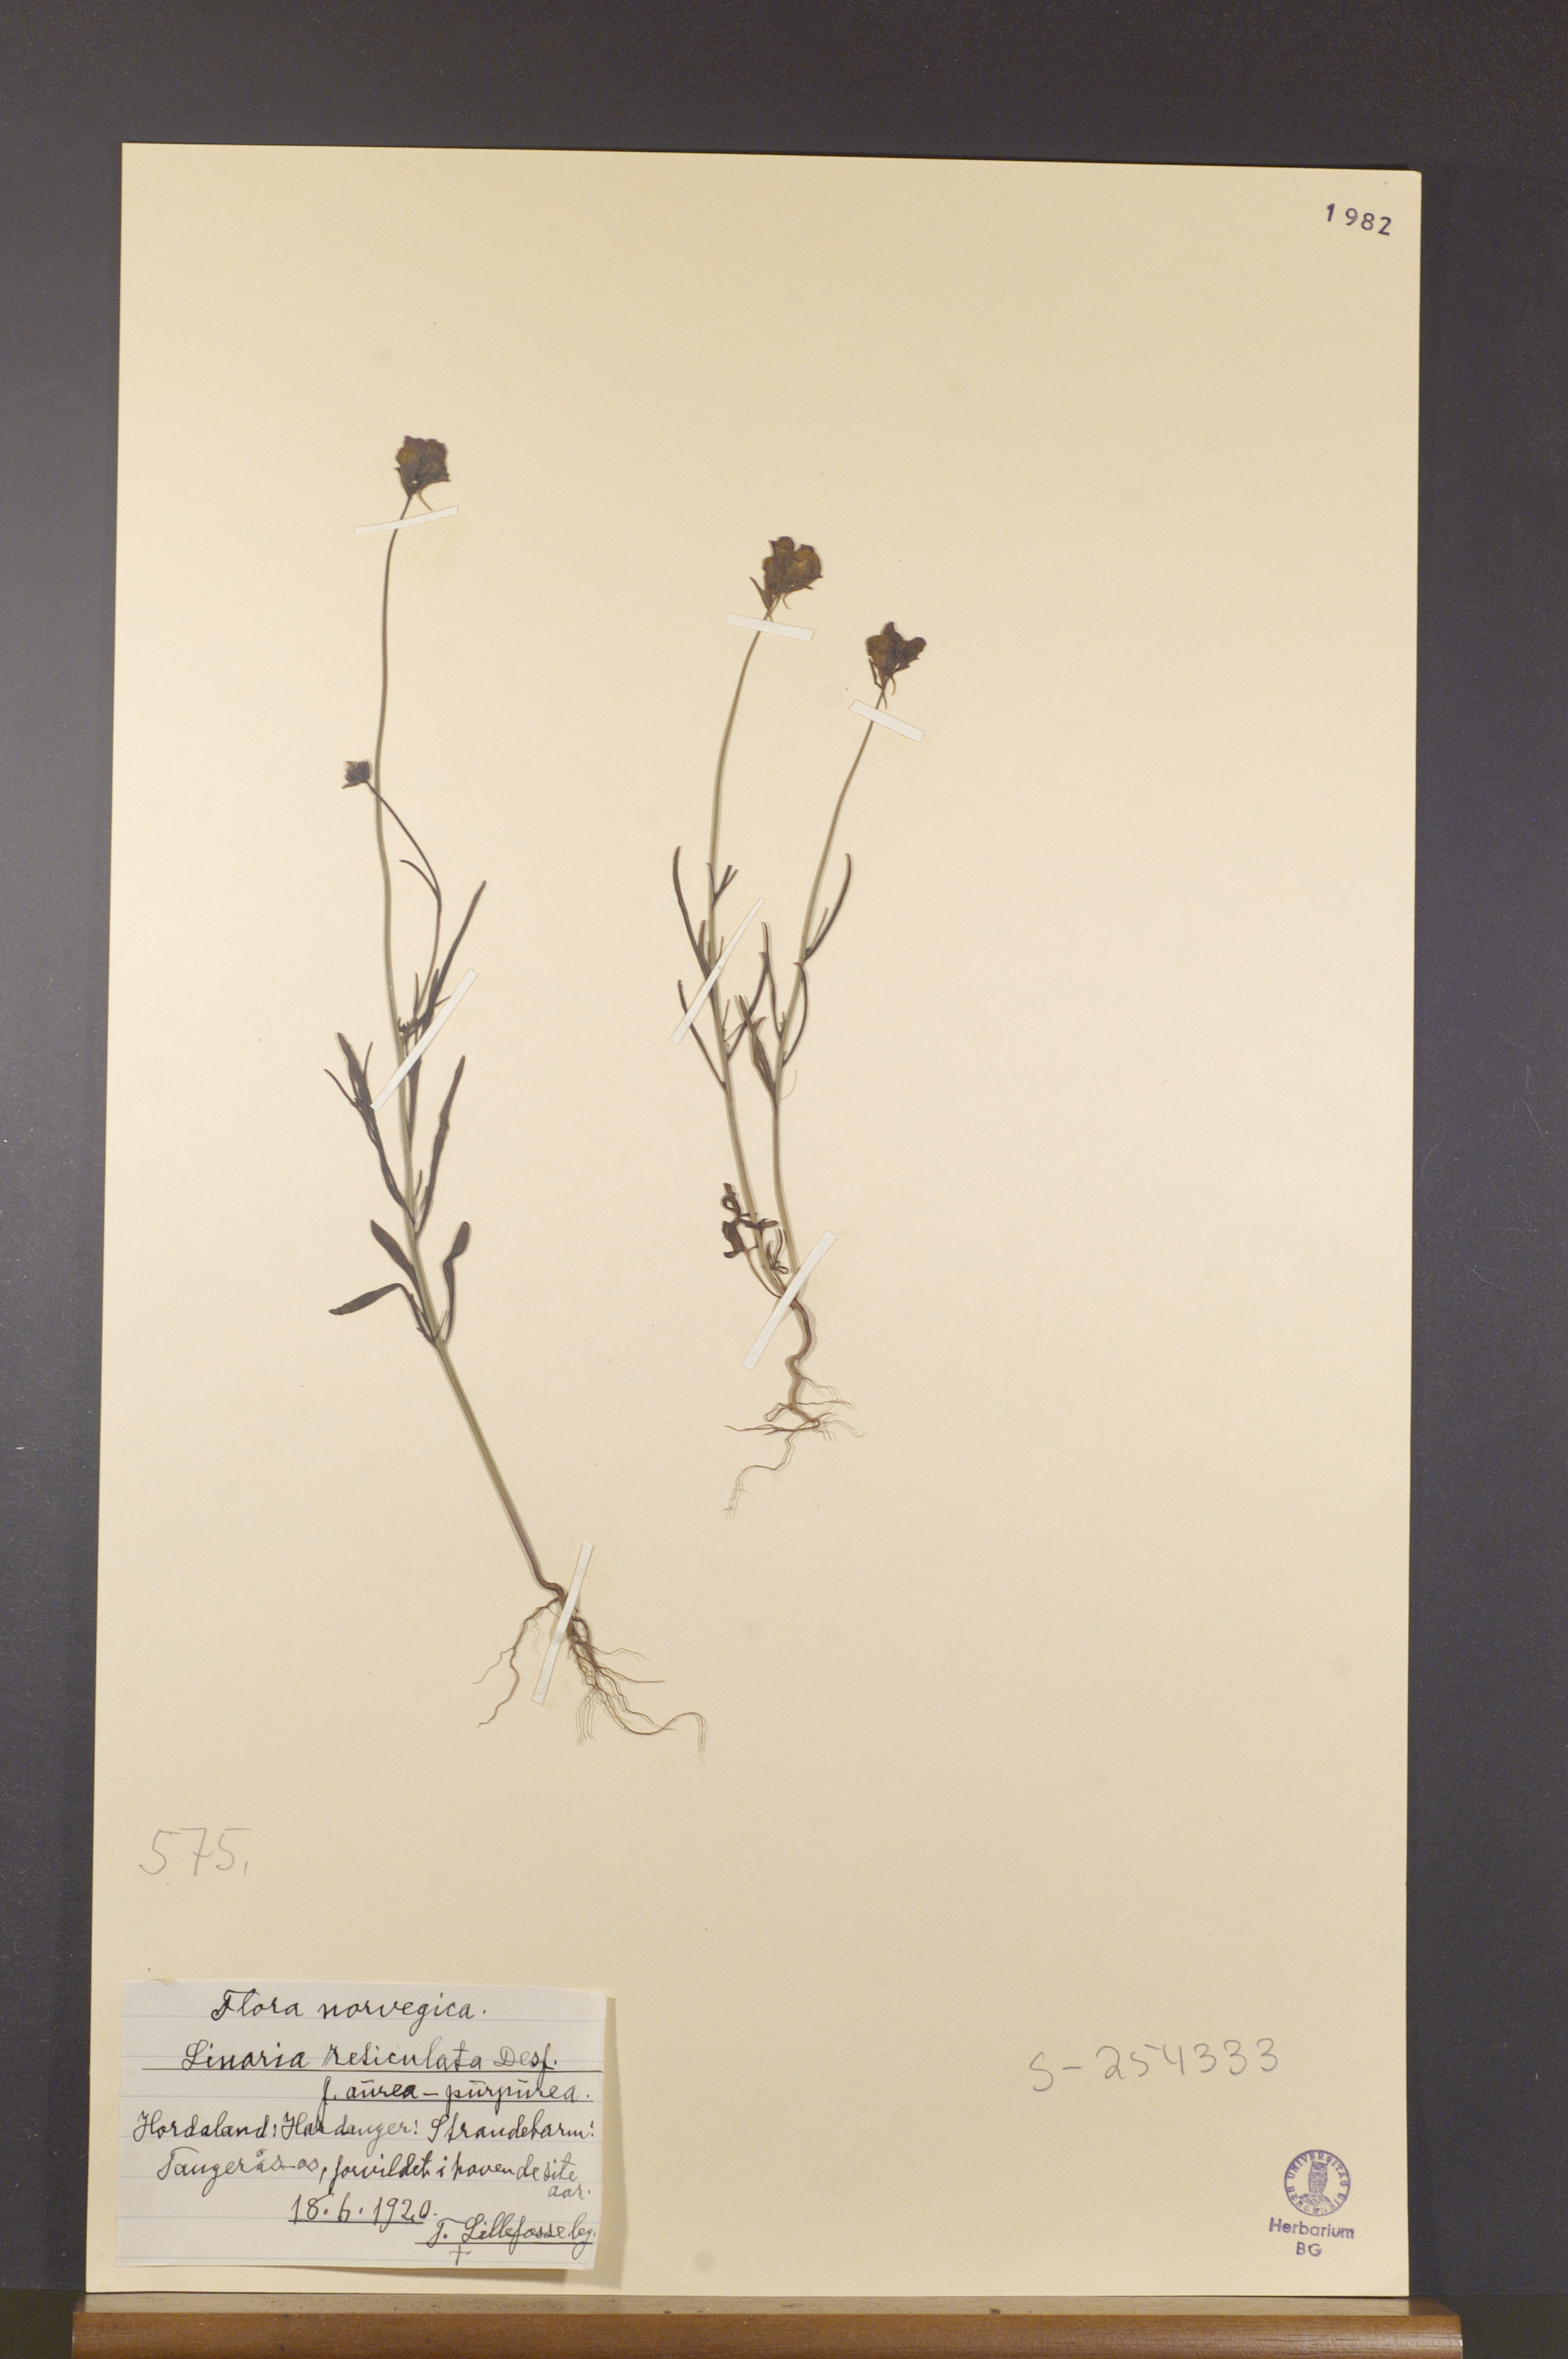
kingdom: Plantae
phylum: Tracheophyta
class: Magnoliopsida
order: Lamiales
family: Plantaginaceae
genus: Linaria
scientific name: Linaria pinifolia
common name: Pineneedle toadflax
